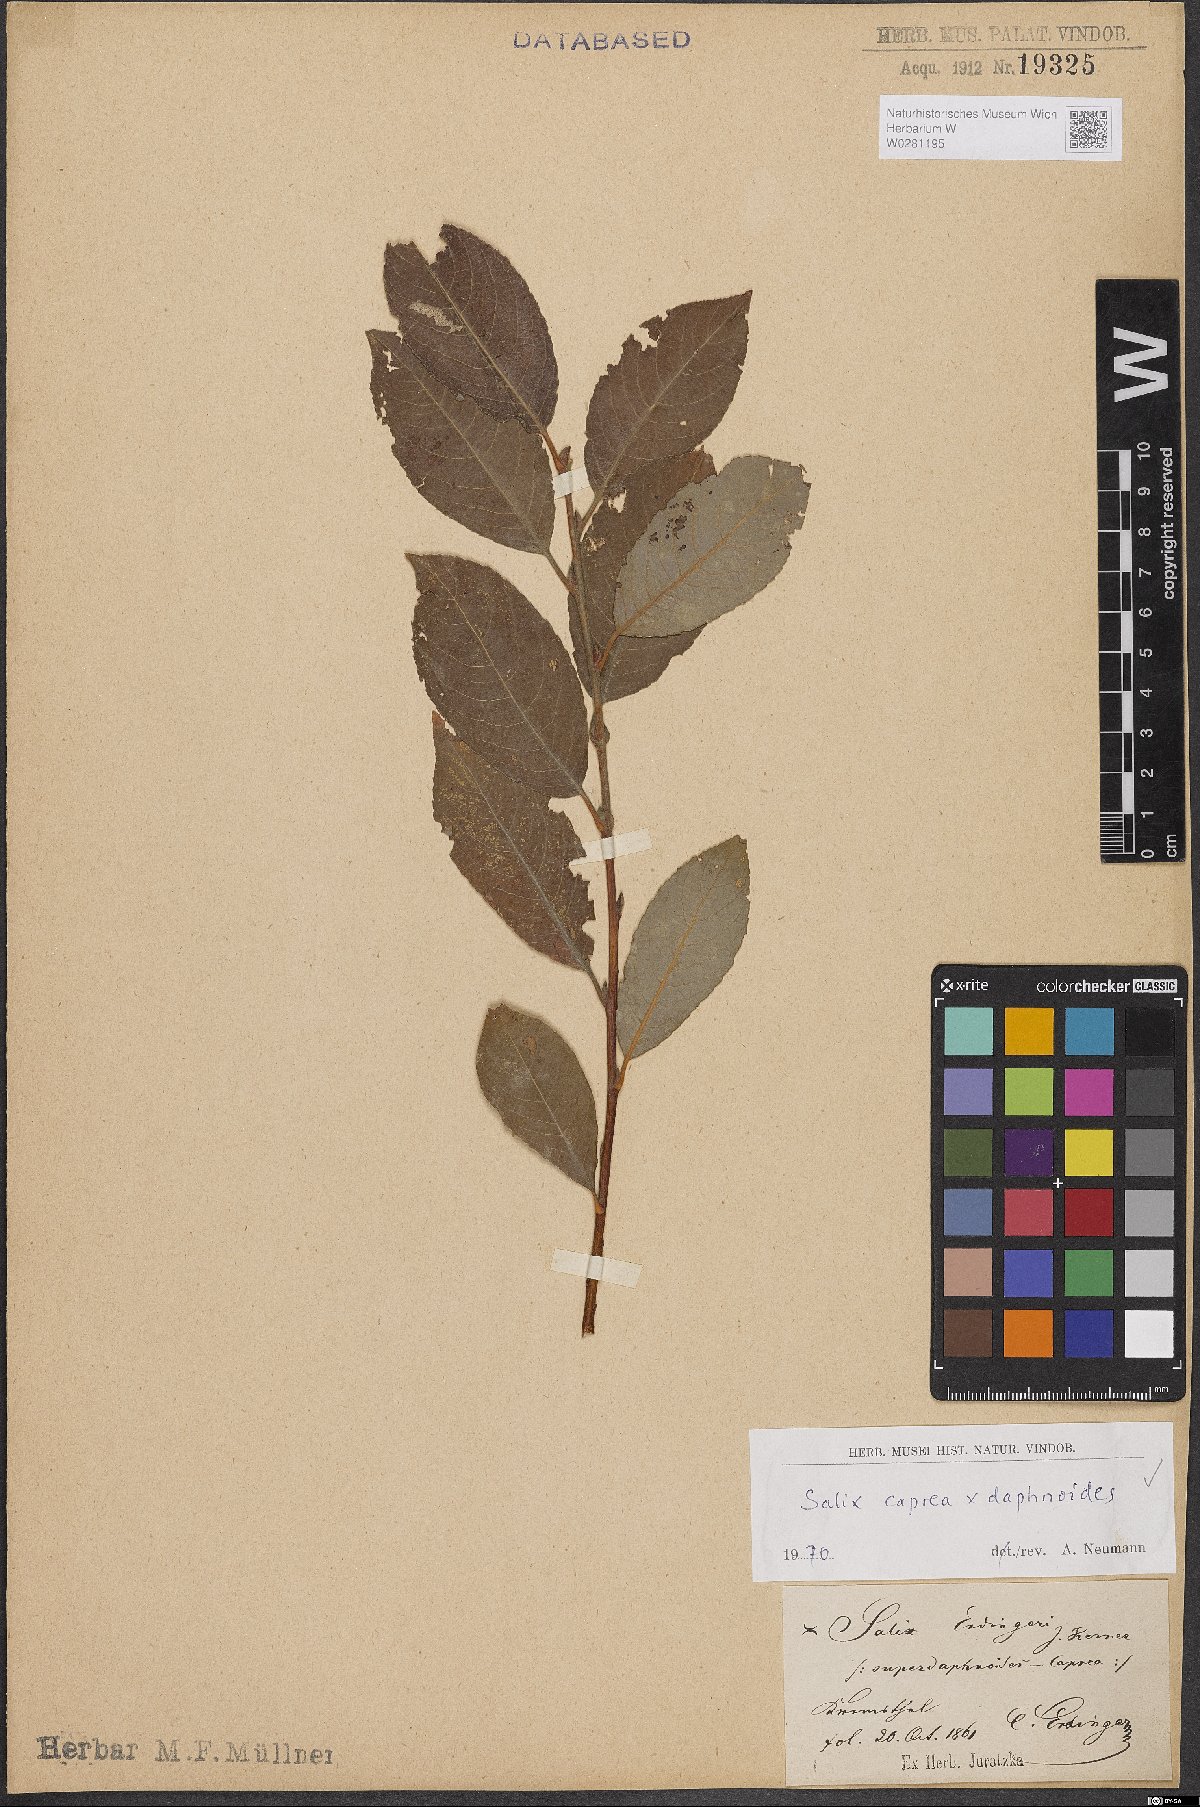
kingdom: Plantae
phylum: Tracheophyta
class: Magnoliopsida
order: Malpighiales
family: Salicaceae
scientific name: Salicaceae
